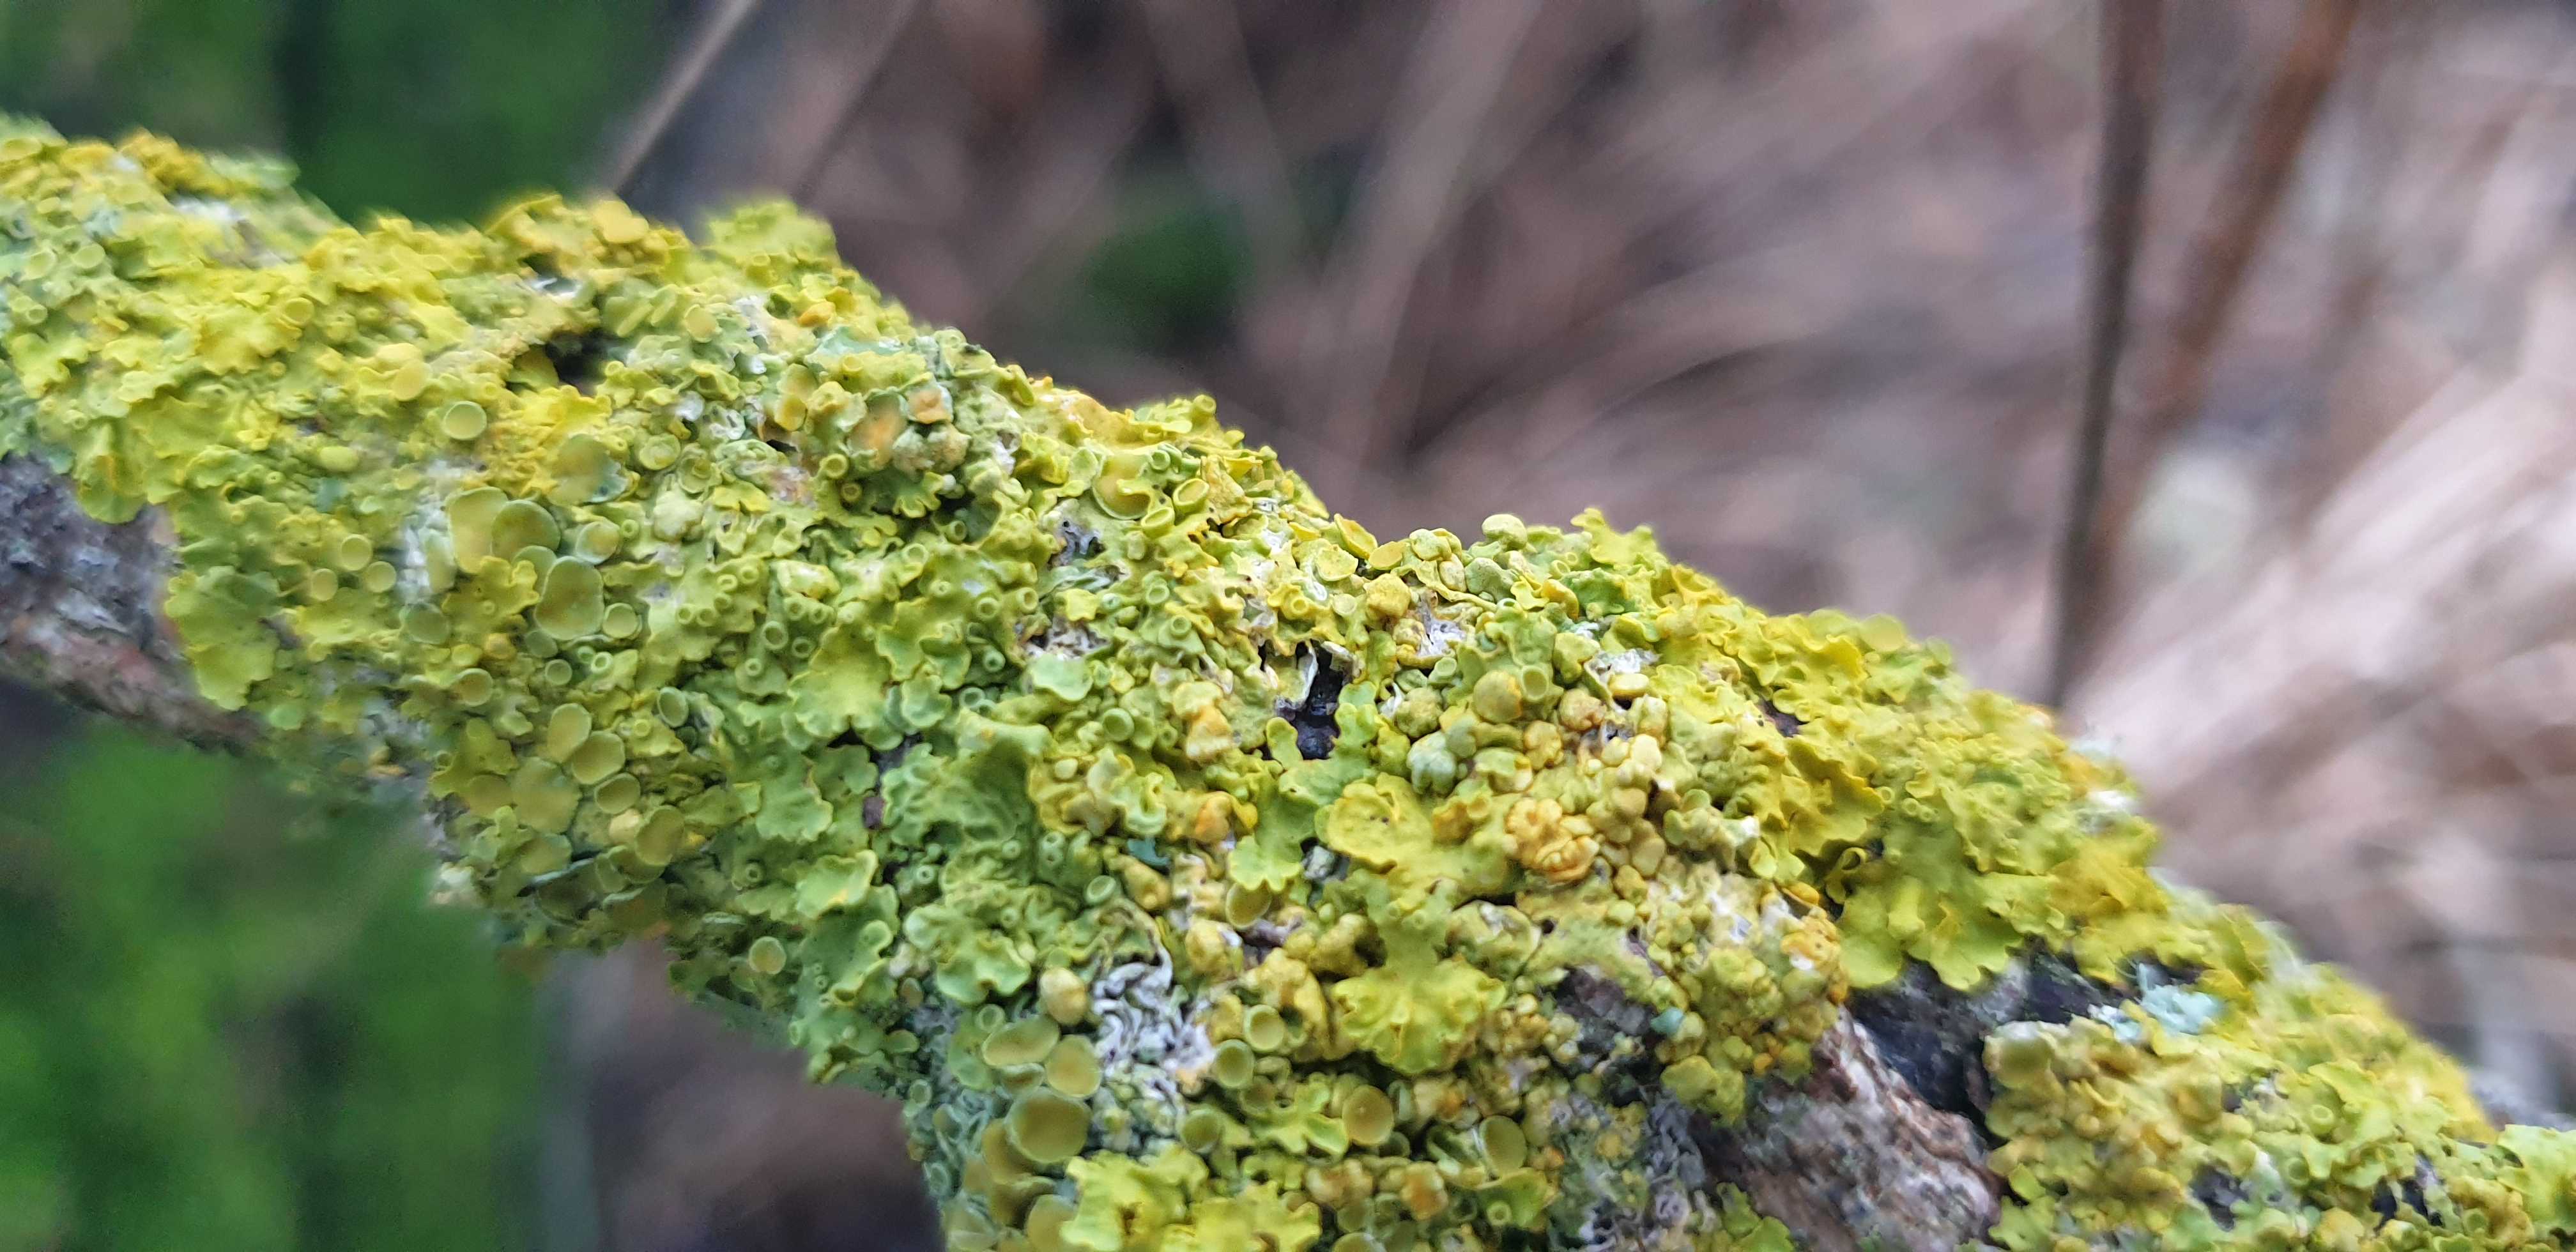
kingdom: Fungi
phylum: Ascomycota
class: Lecanoromycetes
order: Teloschistales
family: Teloschistaceae
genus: Xanthoria
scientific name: Xanthoria parietina
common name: almindelig væggelav
